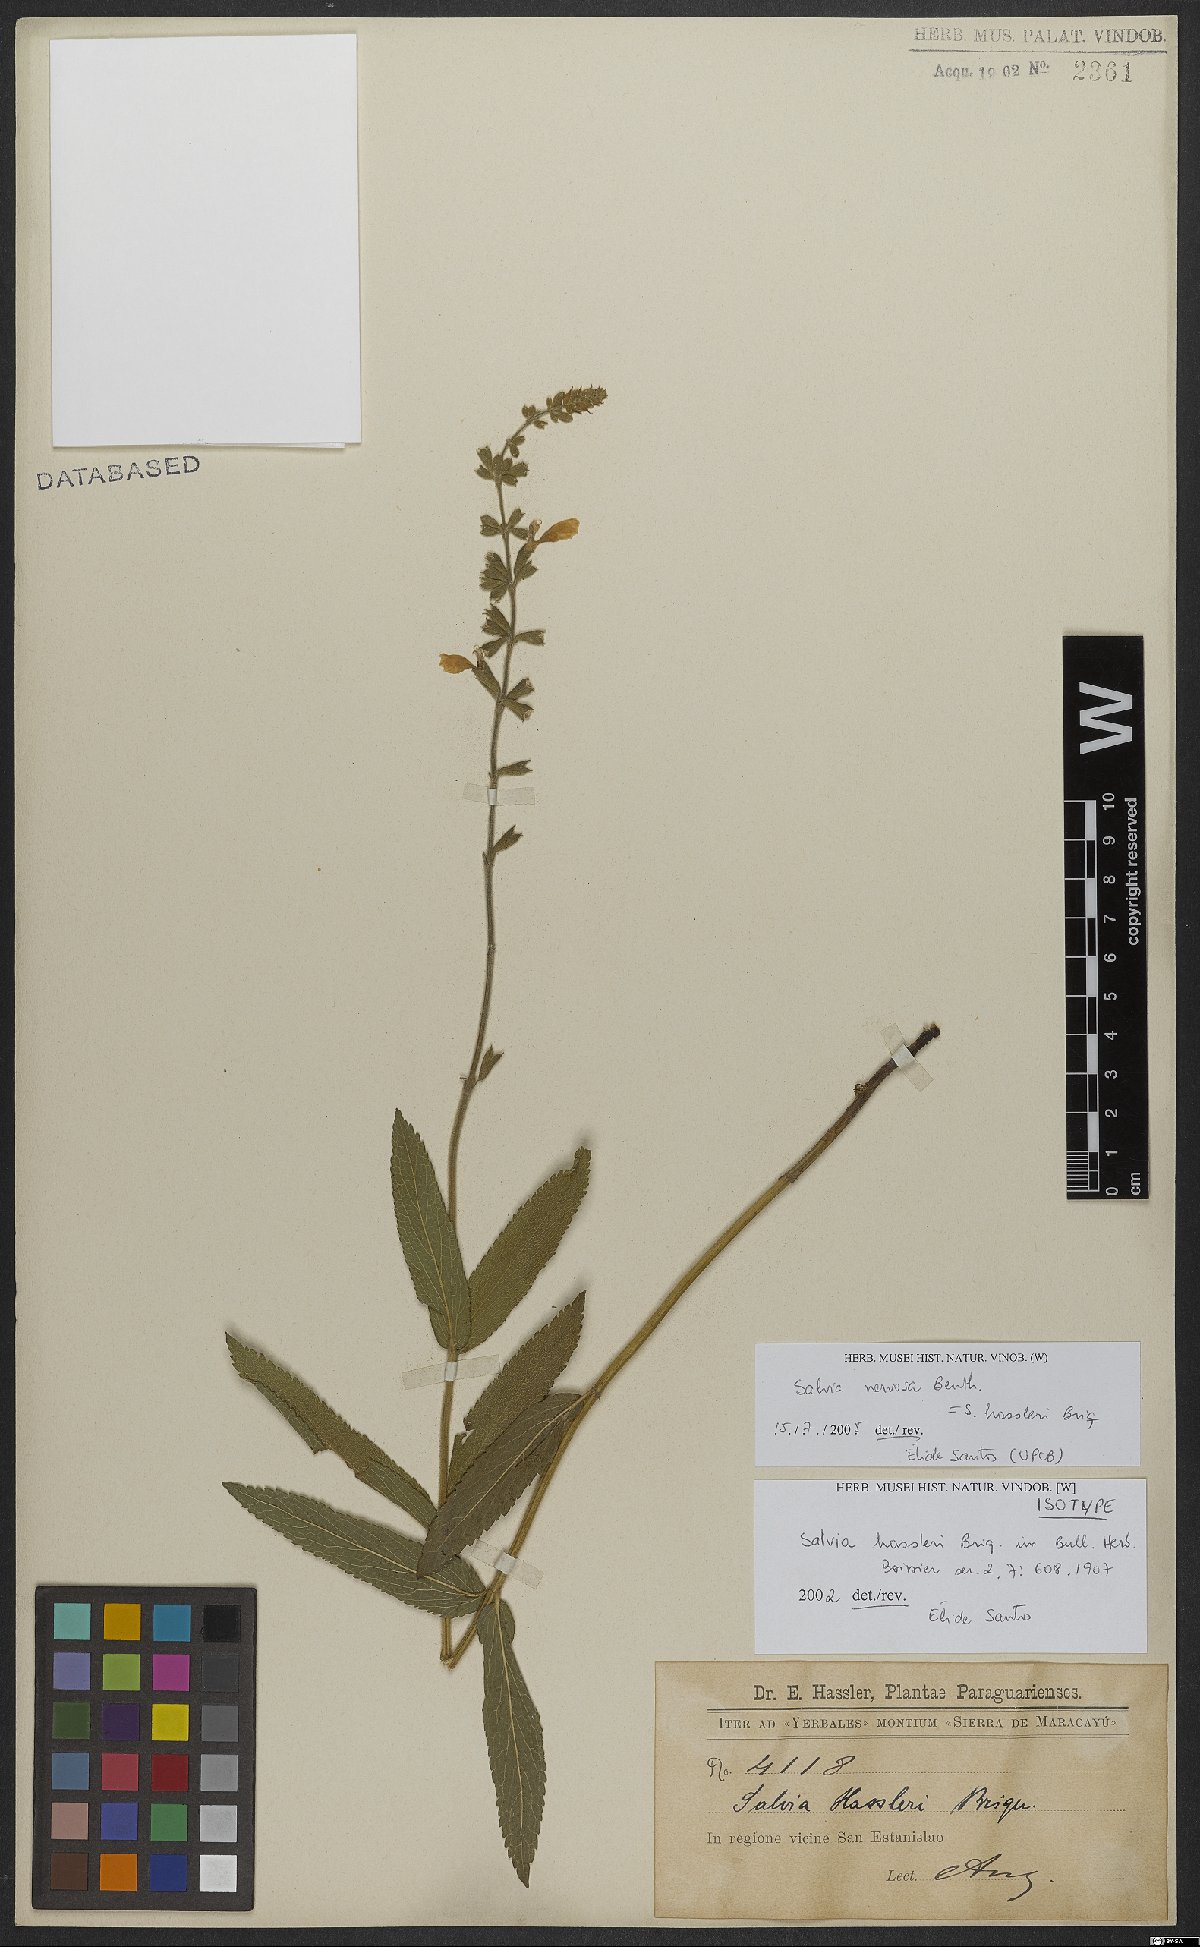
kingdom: Plantae
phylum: Tracheophyta
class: Magnoliopsida
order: Lamiales
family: Lamiaceae
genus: Salvia
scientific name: Salvia nervosa
